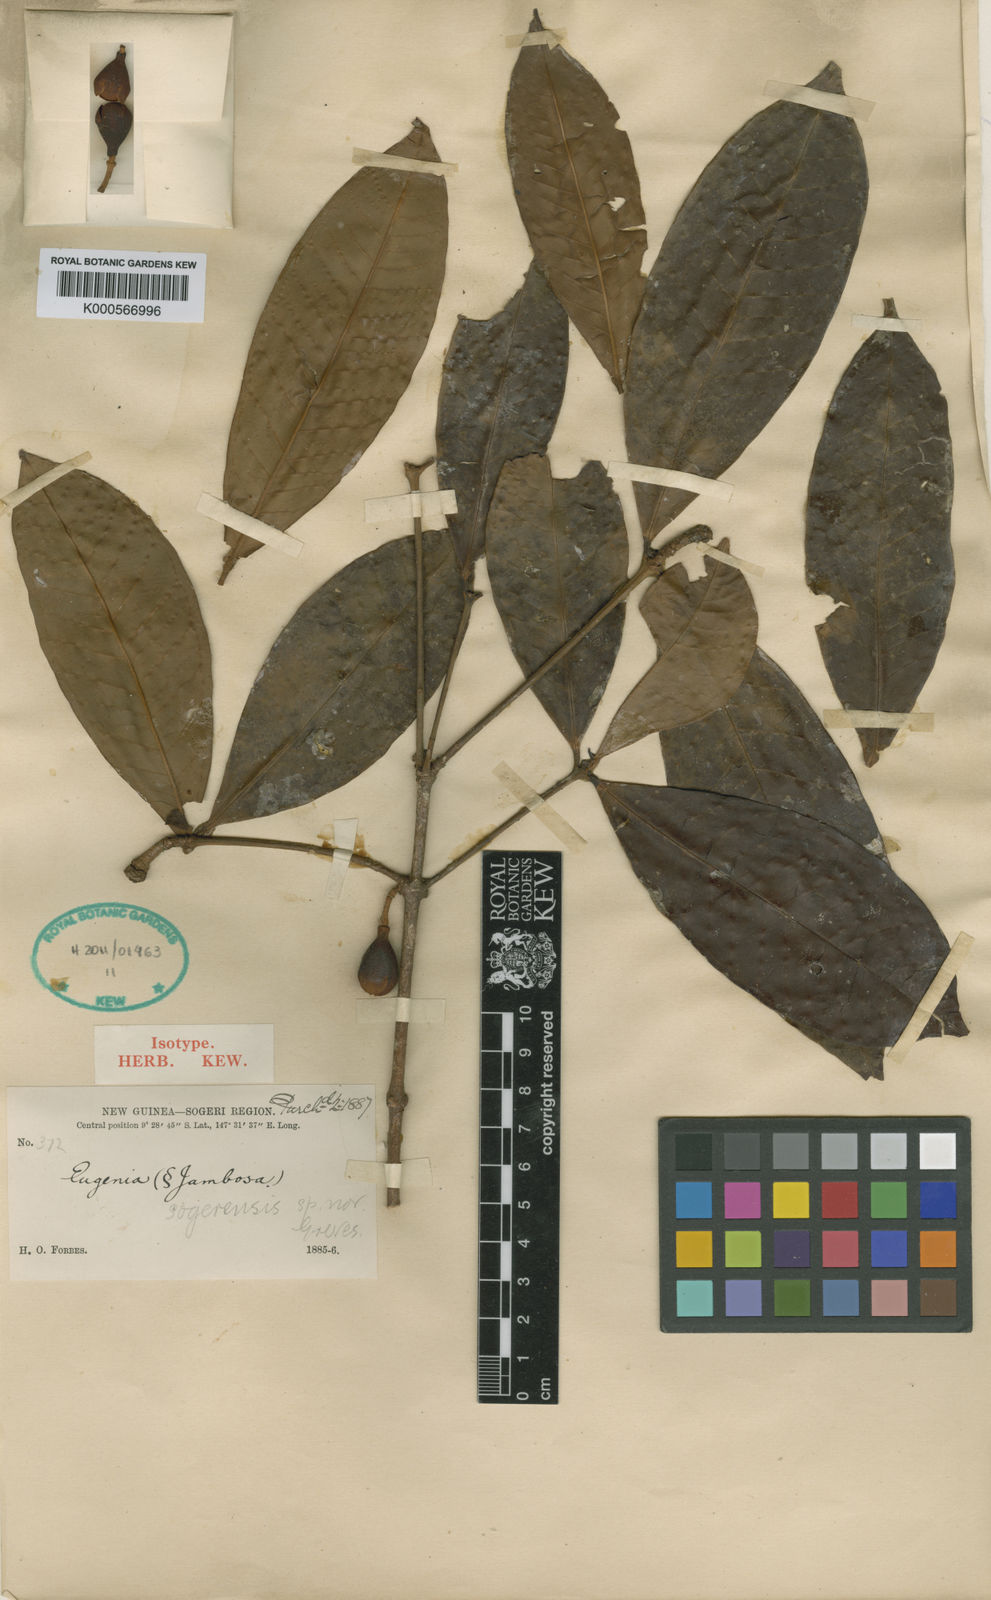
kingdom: Plantae
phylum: Tracheophyta
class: Magnoliopsida
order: Myrtales
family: Myrtaceae
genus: Syzygium
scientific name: Syzygium sogerense
